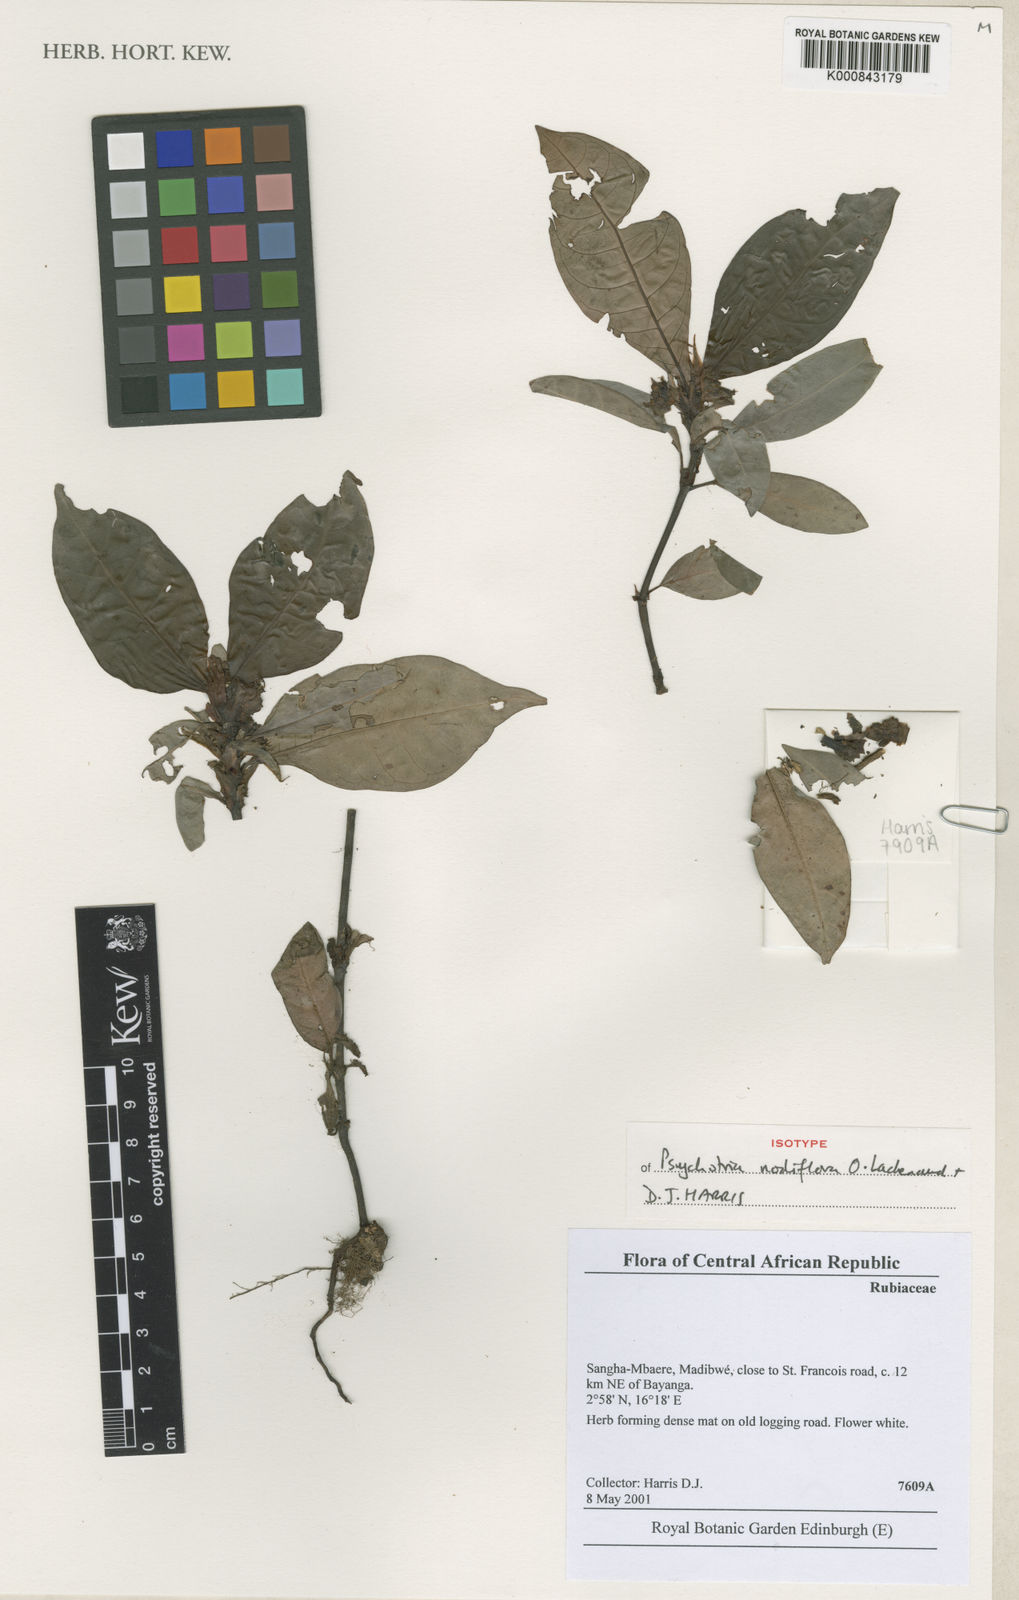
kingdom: Plantae
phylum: Tracheophyta
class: Magnoliopsida
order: Gentianales
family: Rubiaceae
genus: Psychotria
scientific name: Psychotria nodiflora
